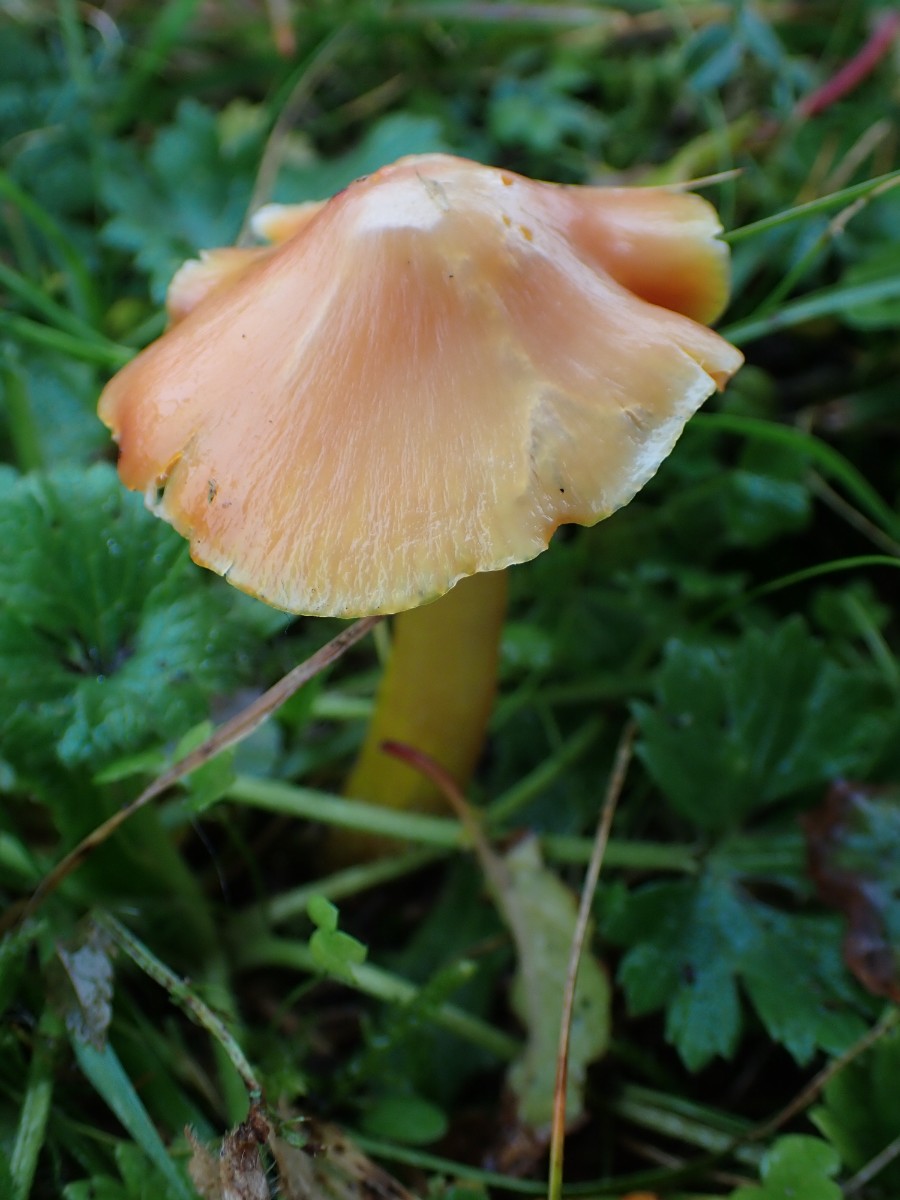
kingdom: Fungi
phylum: Basidiomycota
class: Agaricomycetes
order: Agaricales
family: Hygrophoraceae
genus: Hygrocybe
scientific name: Hygrocybe
